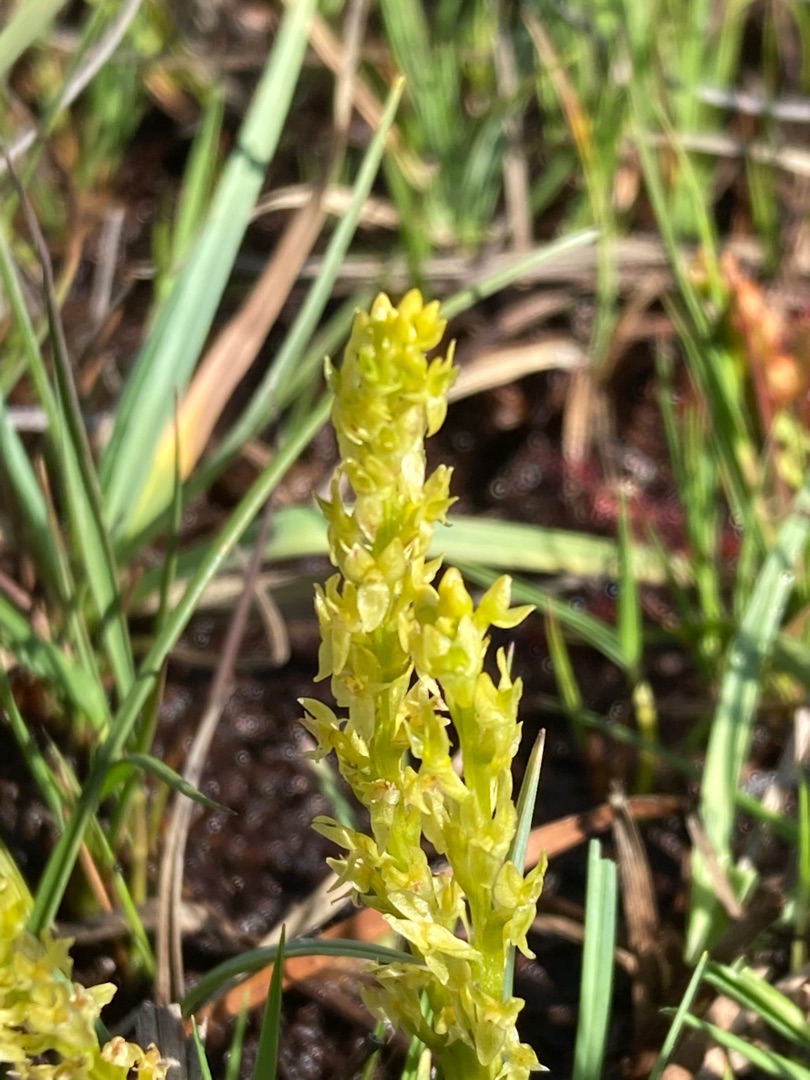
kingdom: Plantae
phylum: Tracheophyta
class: Liliopsida
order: Asparagales
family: Orchidaceae
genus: Hammarbya
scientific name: Hammarbya paludosa
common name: Hjertelæbe
